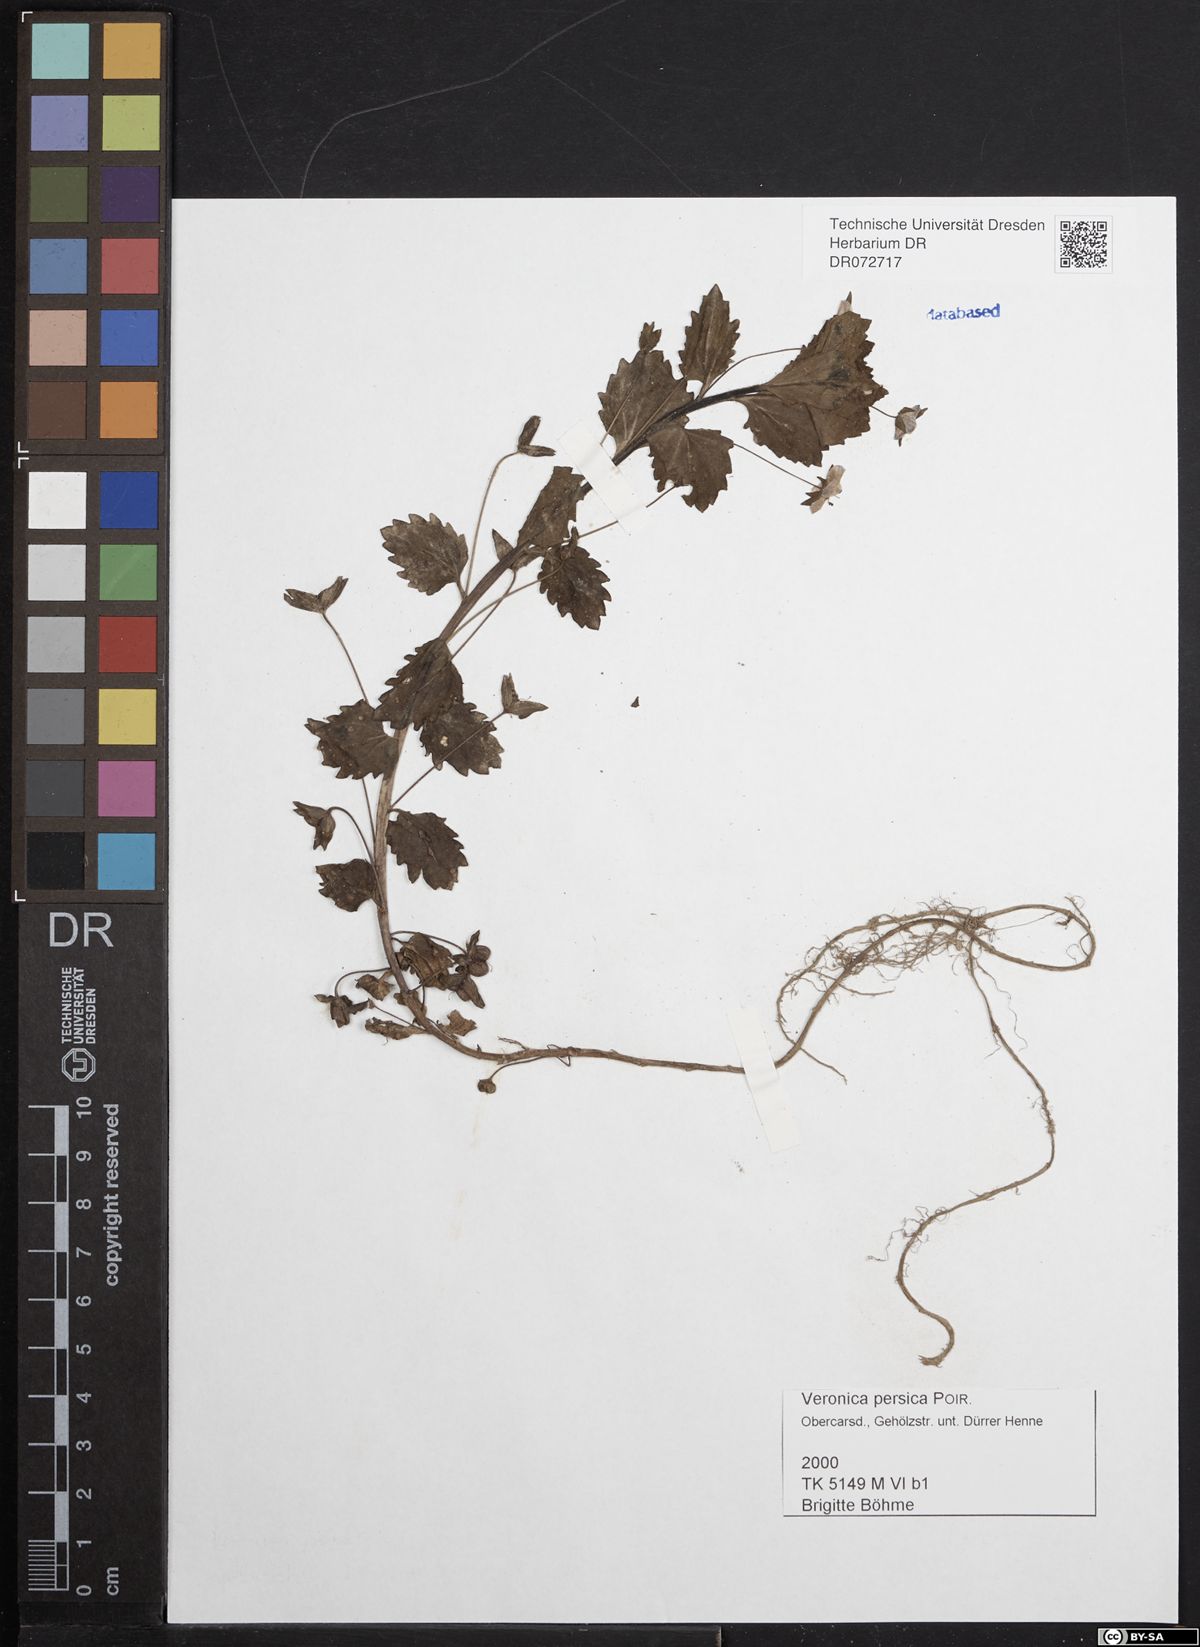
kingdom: Plantae
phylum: Tracheophyta
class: Magnoliopsida
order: Lamiales
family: Plantaginaceae
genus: Veronica
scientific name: Veronica persica
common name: Common field-speedwell
